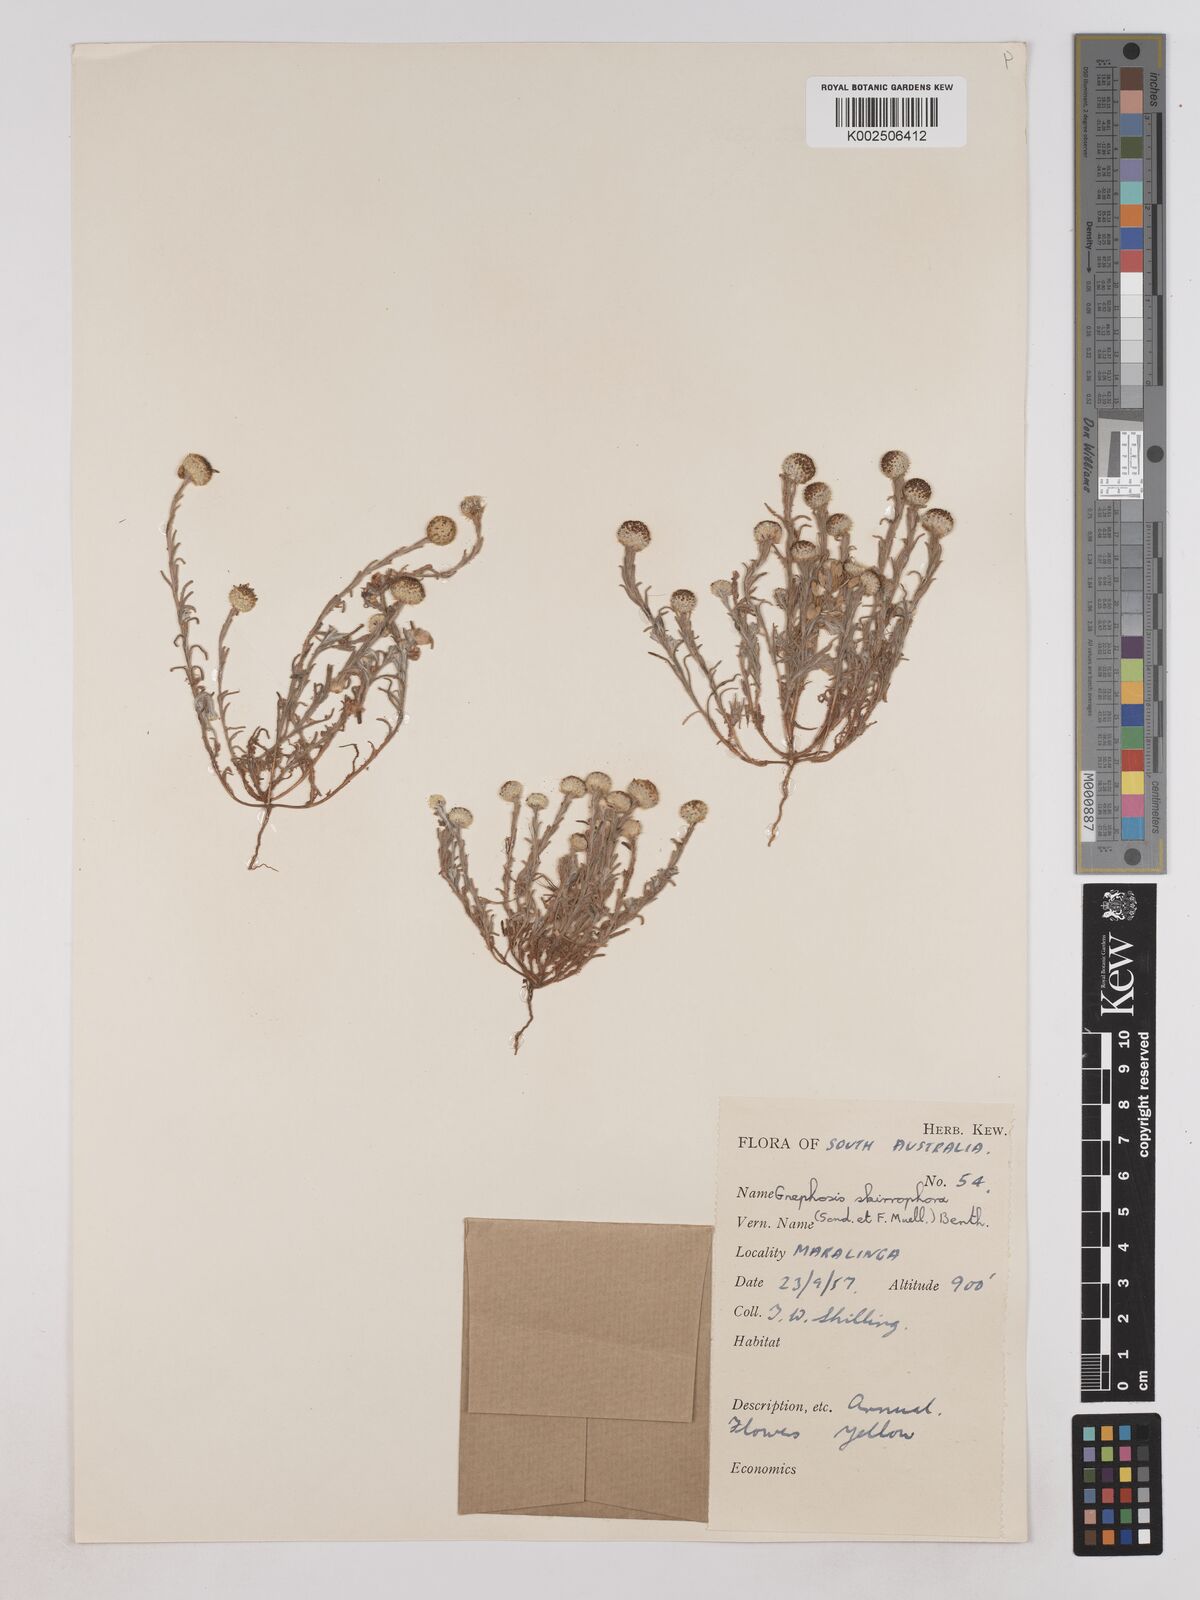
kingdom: Plantae
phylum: Tracheophyta
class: Magnoliopsida
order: Asterales
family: Asteraceae
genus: Trichanthodium
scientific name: Trichanthodium skirrophorum
